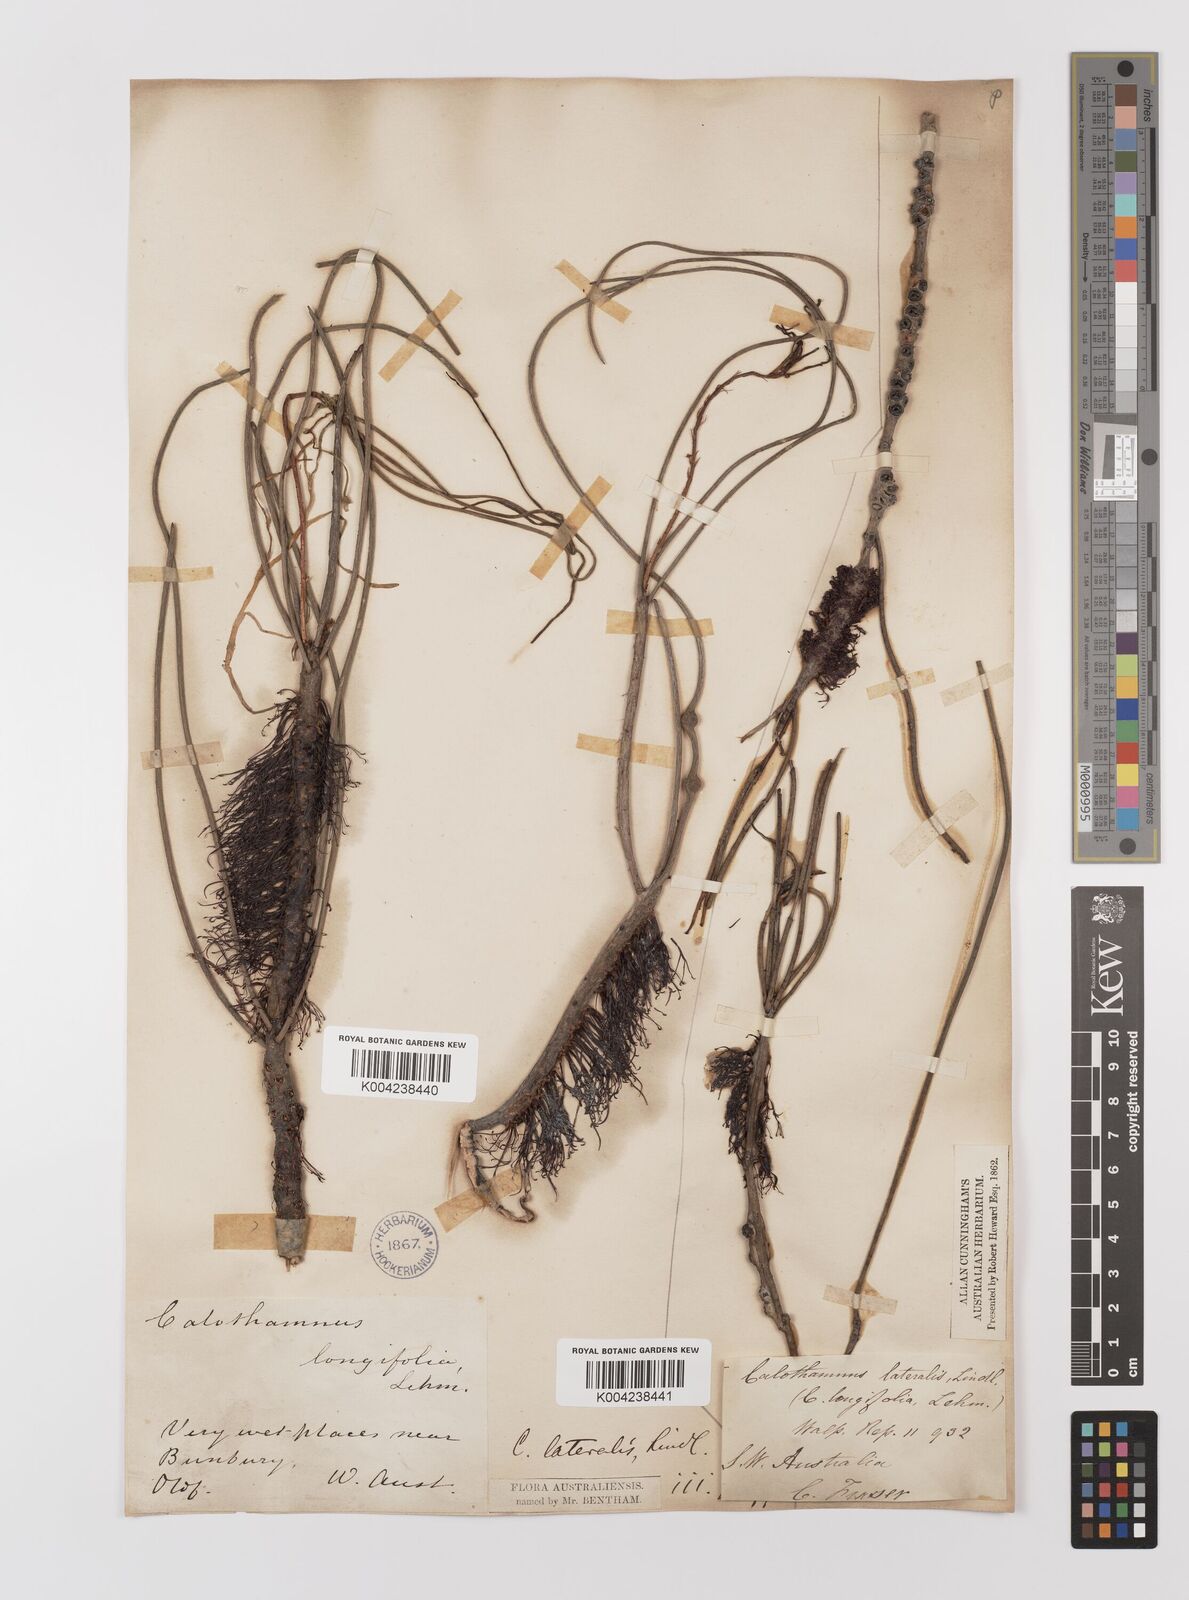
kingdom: Plantae
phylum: Tracheophyta
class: Magnoliopsida
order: Myrtales
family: Myrtaceae
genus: Melaleuca
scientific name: Melaleuca lateralis
